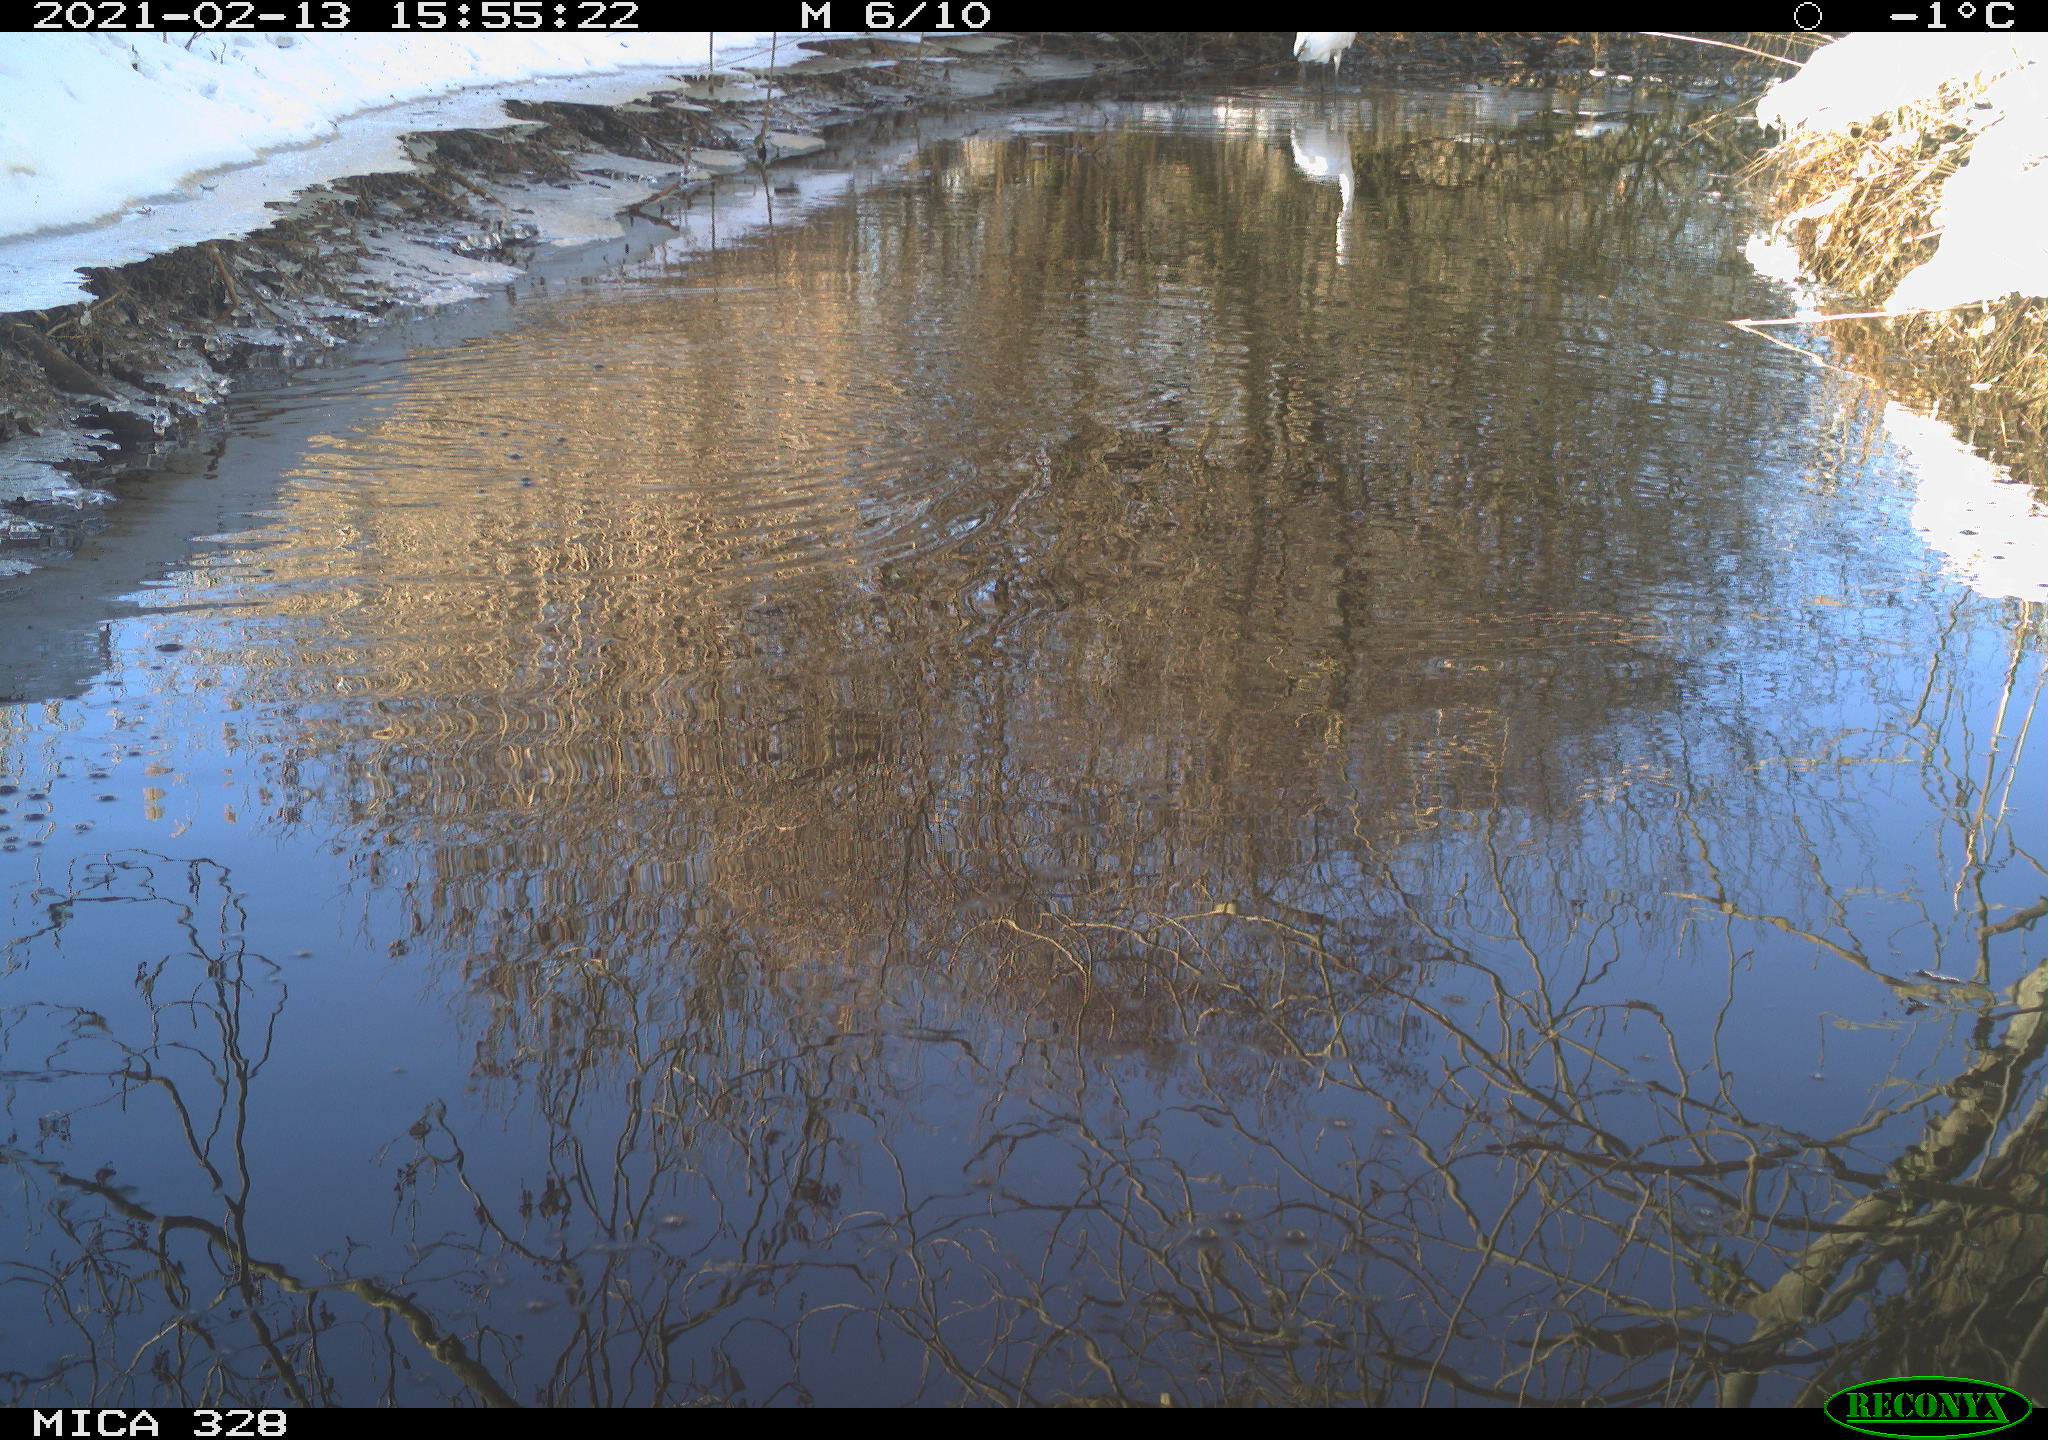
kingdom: Animalia
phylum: Chordata
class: Aves
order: Pelecaniformes
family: Ardeidae
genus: Ardea
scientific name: Ardea alba
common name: Great egret
